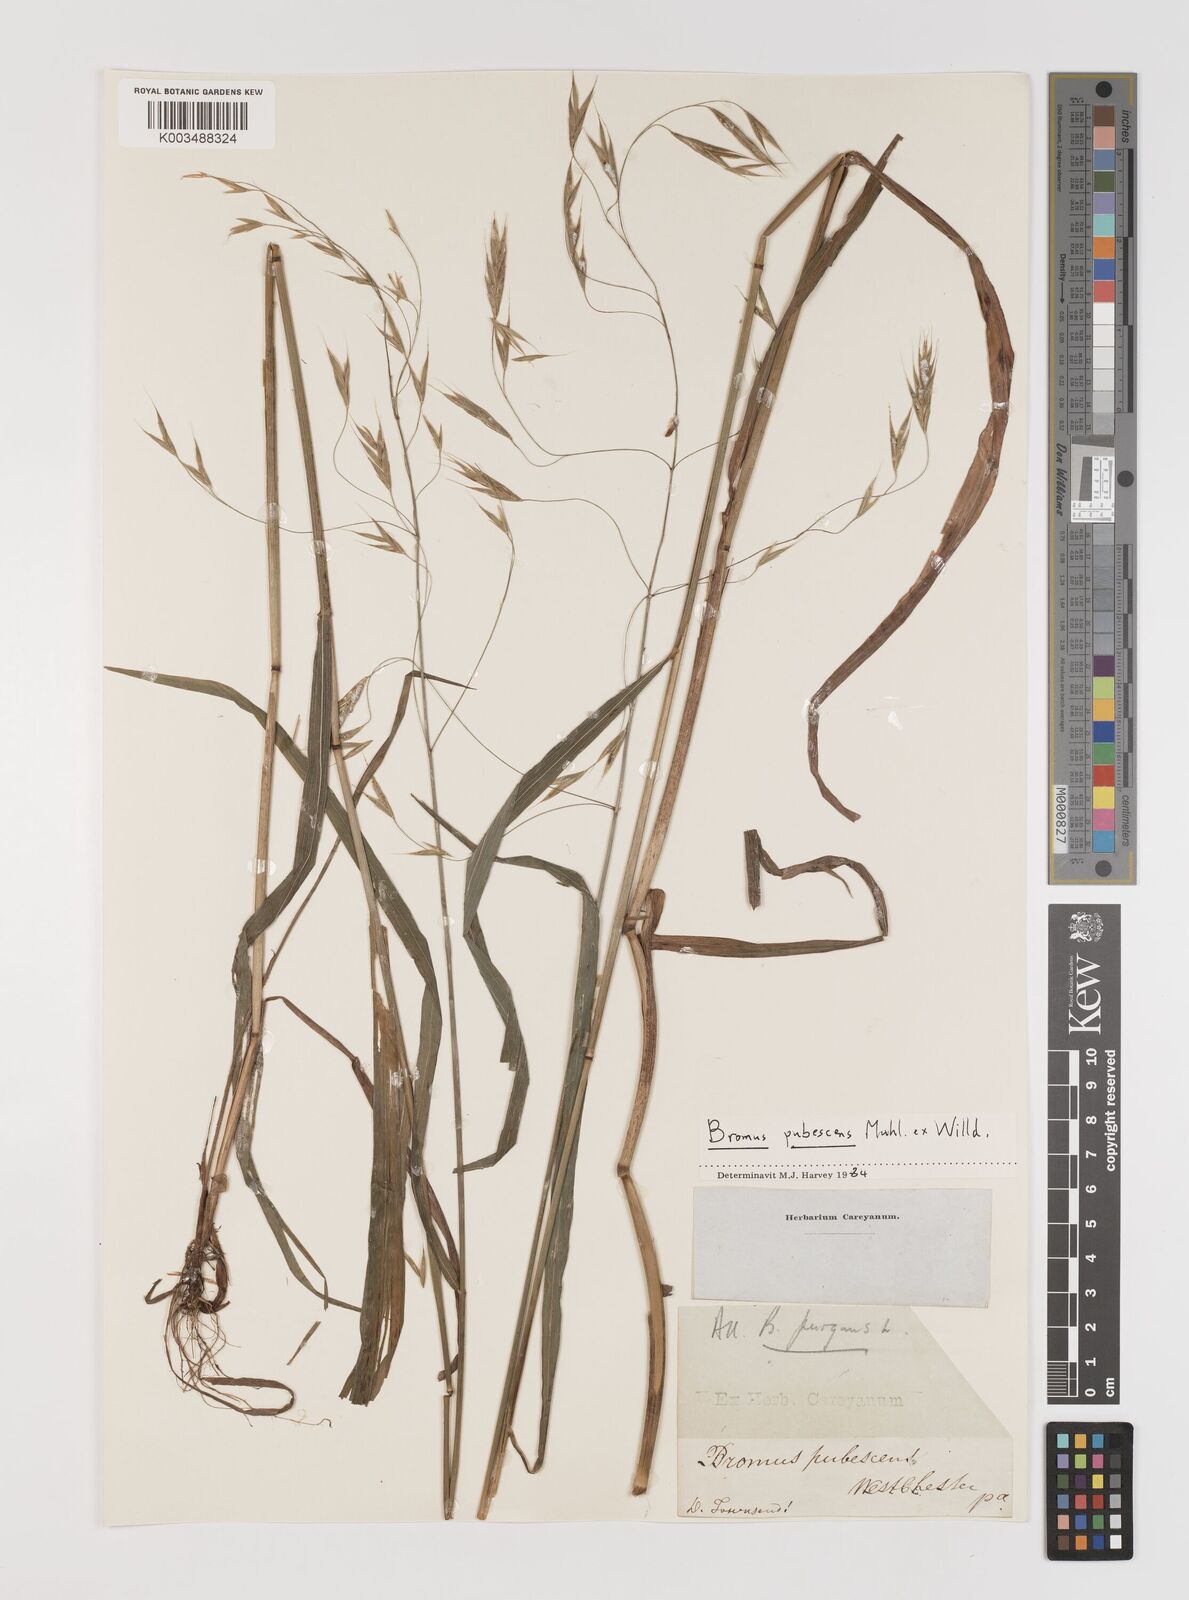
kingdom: Plantae
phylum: Tracheophyta
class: Liliopsida
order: Poales
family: Poaceae
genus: Bromus
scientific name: Bromus pubescens
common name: Hairy wood brome grass
